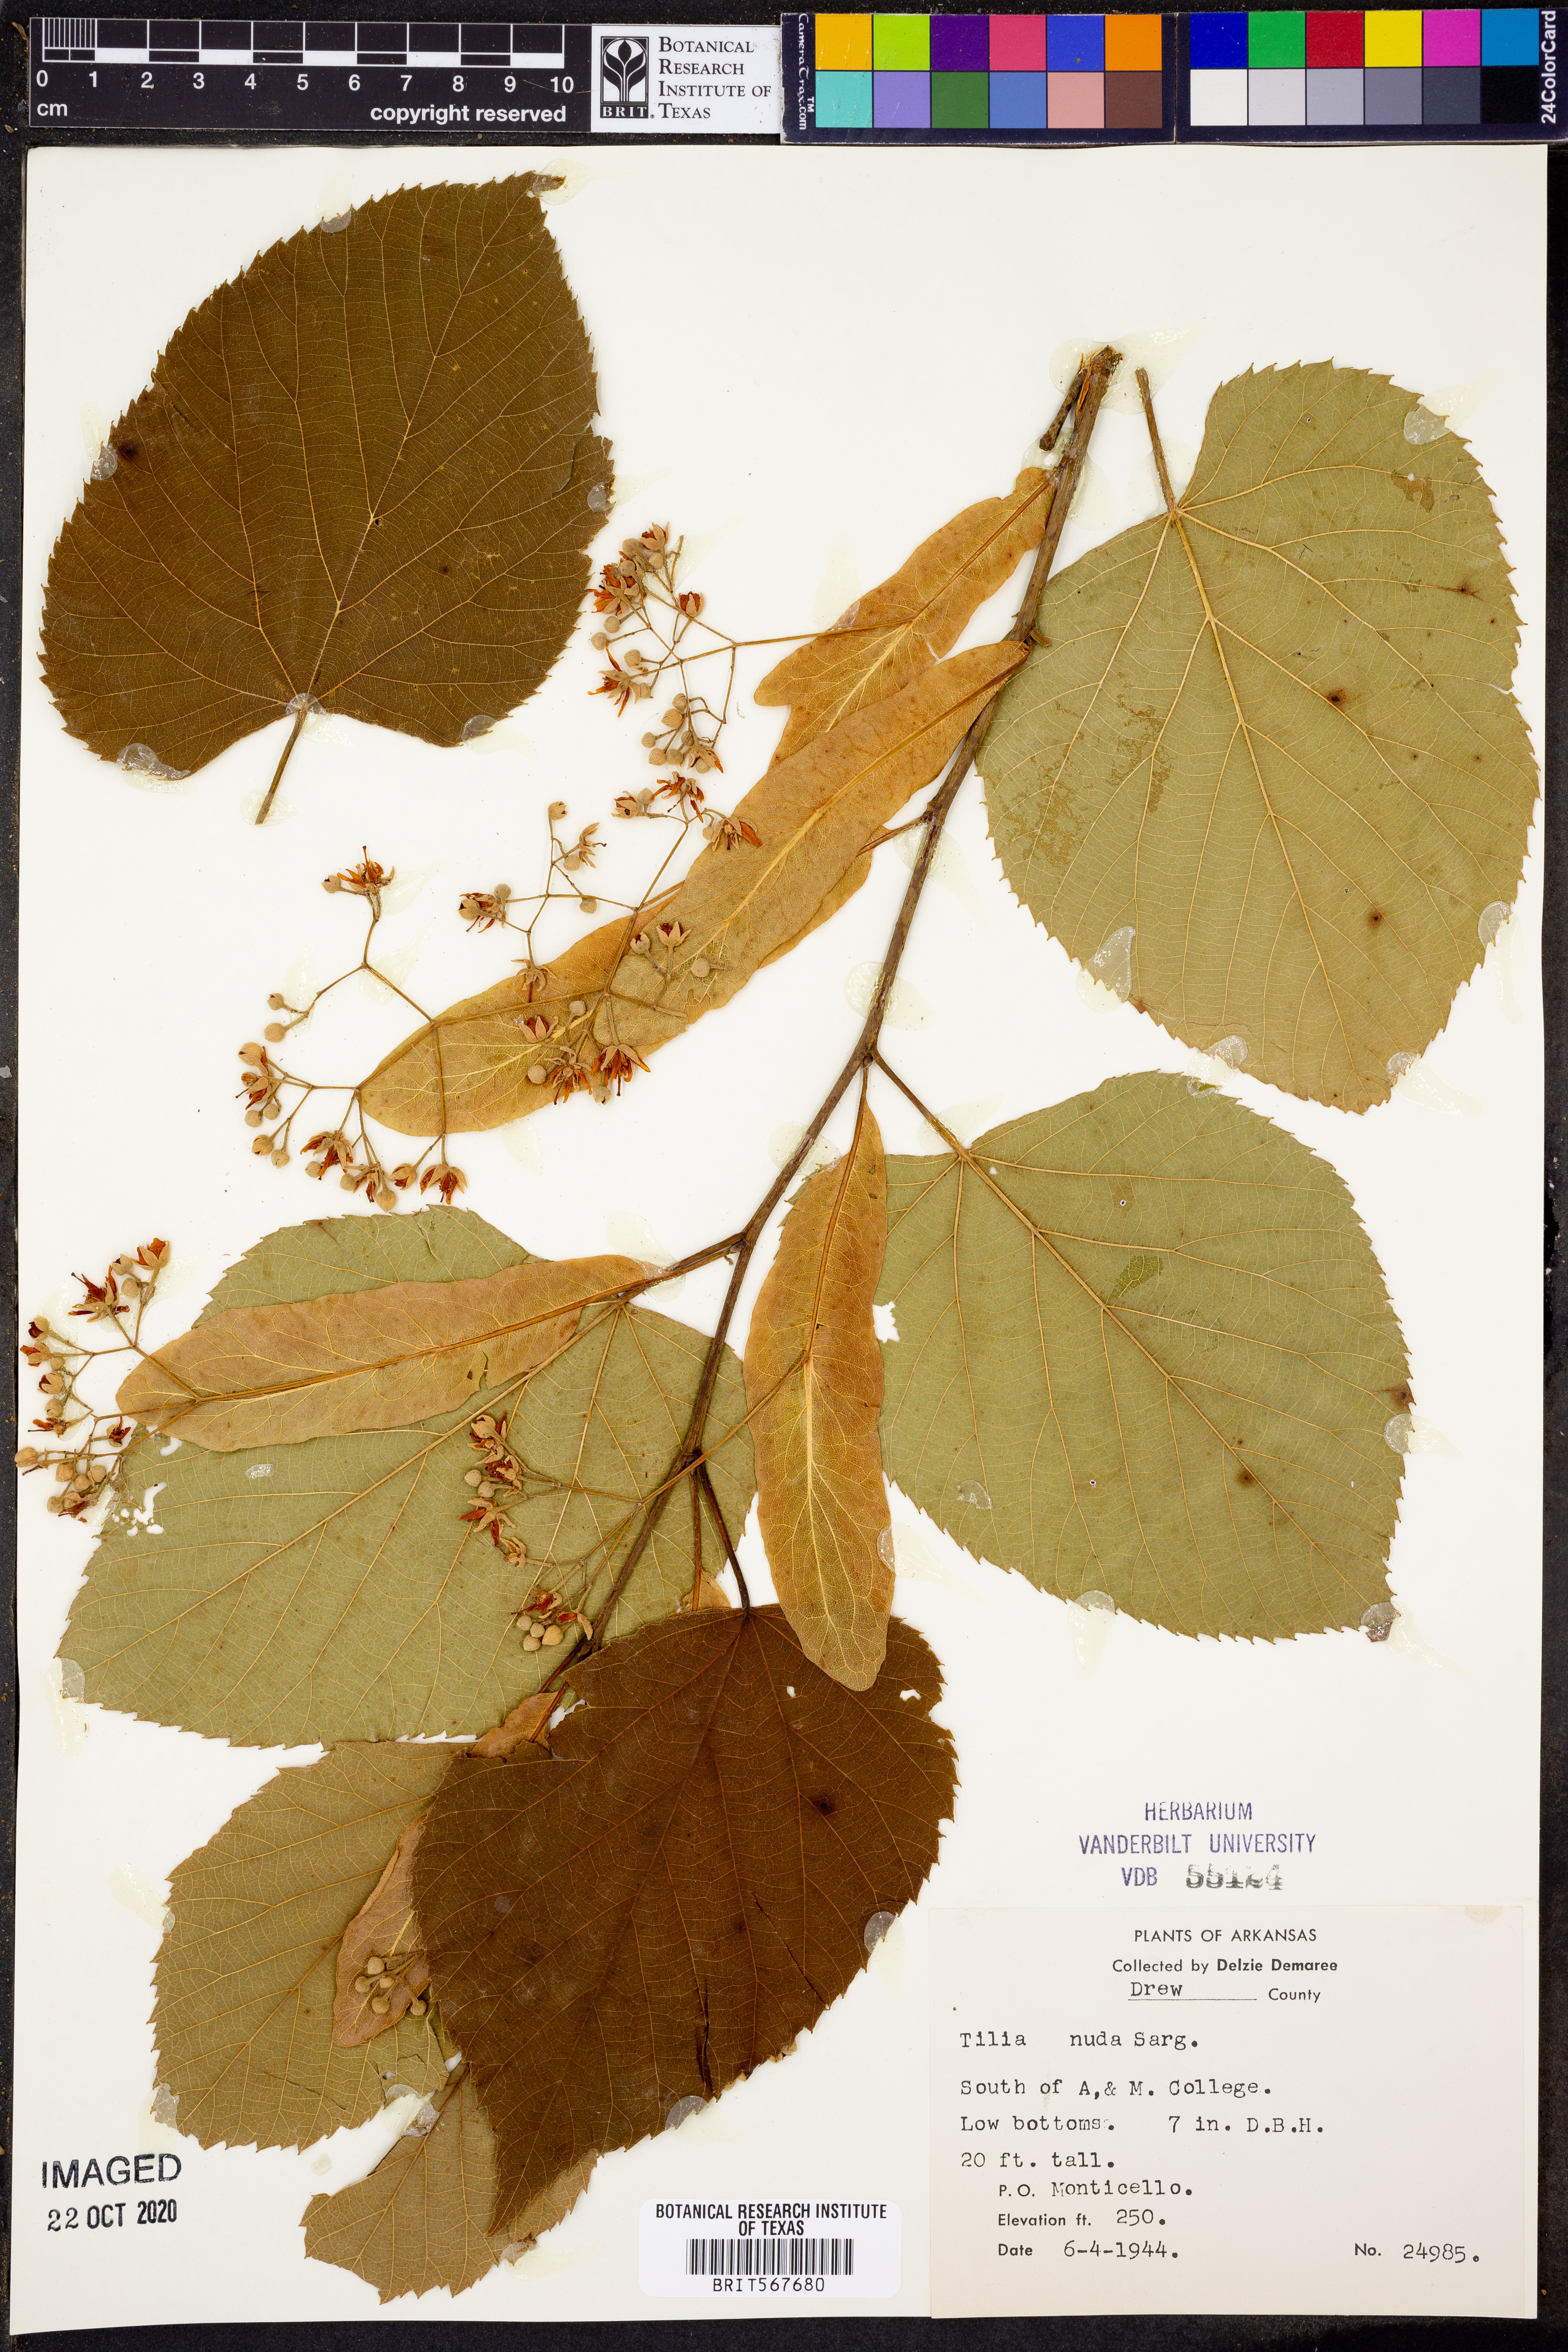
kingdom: Plantae
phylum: Tracheophyta
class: Magnoliopsida
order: Malvales
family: Malvaceae
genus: Tilia
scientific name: Tilia americana
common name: Basswood
